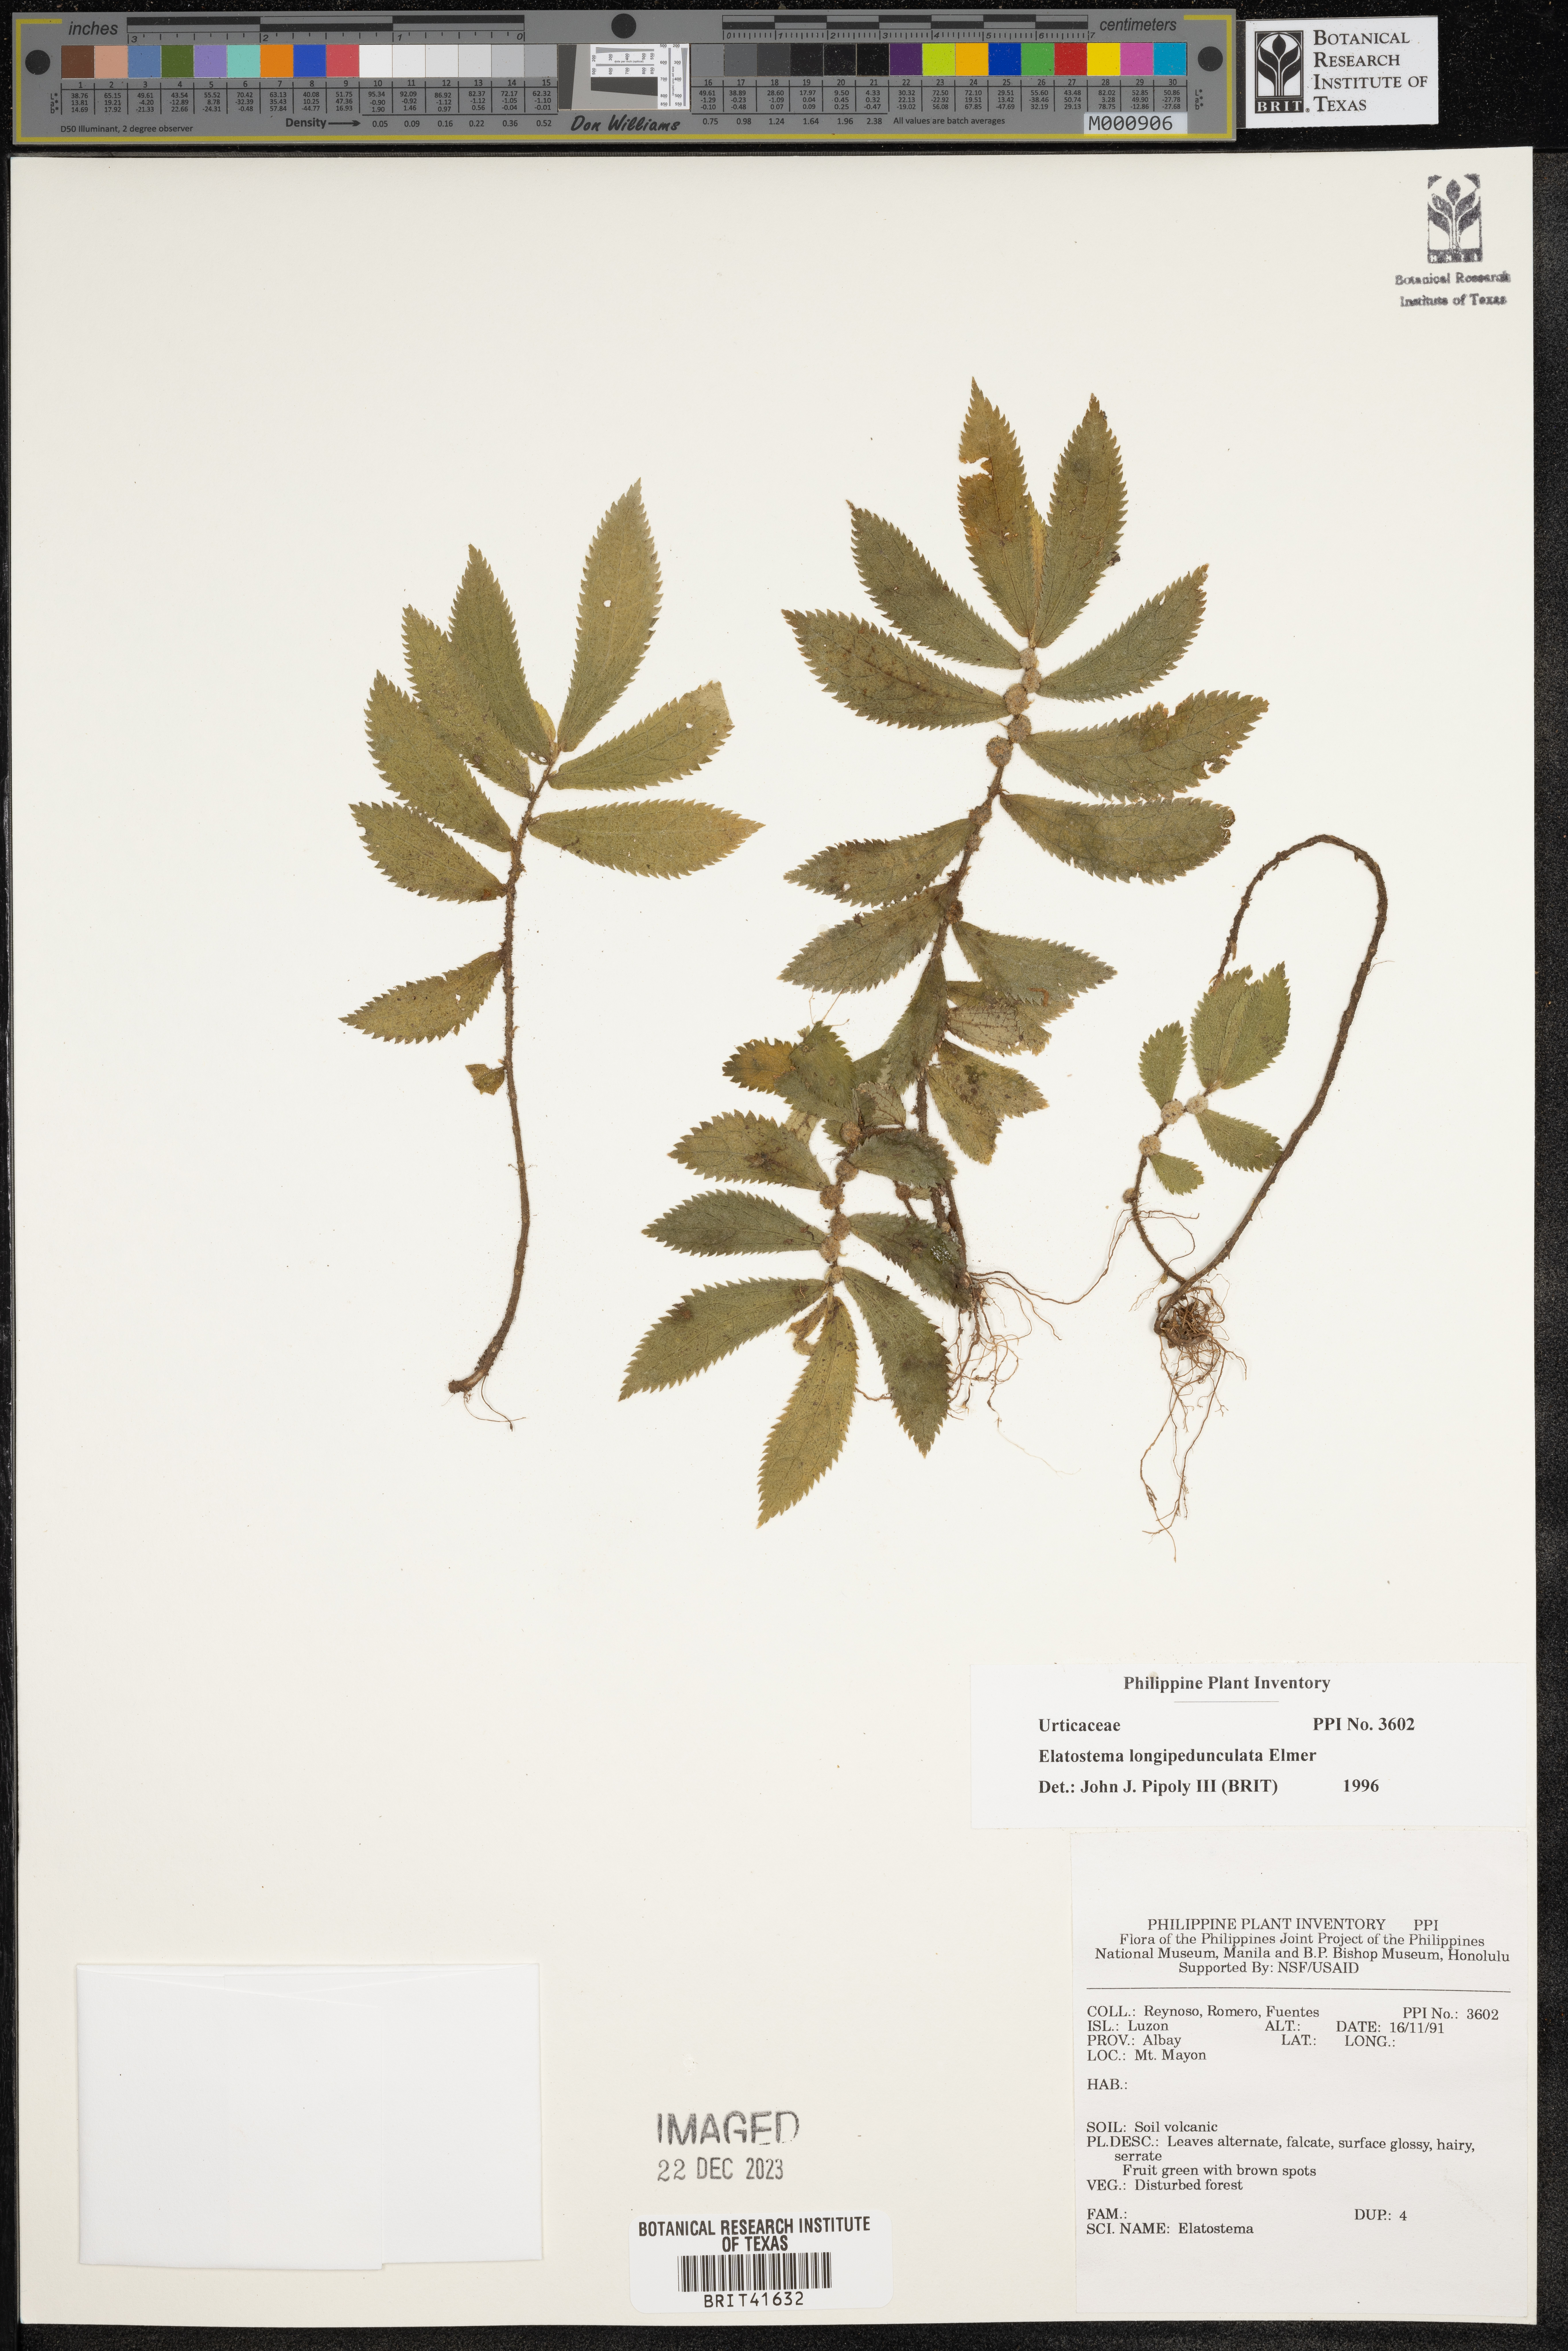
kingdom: Plantae
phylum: Tracheophyta
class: Magnoliopsida
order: Rosales
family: Urticaceae
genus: Elatostema
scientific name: Elatostema longipedunculatum
